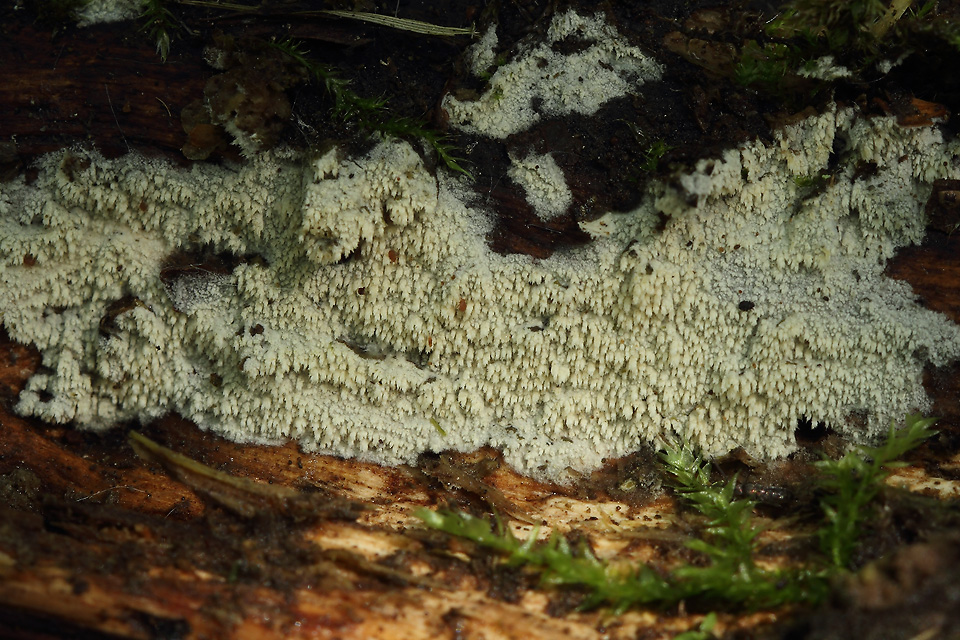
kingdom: Fungi
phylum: Basidiomycota
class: Agaricomycetes
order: Hymenochaetales
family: Hyphodontiaceae
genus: Hyphodontia
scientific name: Hyphodontia barba-jovis
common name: skægget tandsvamp
